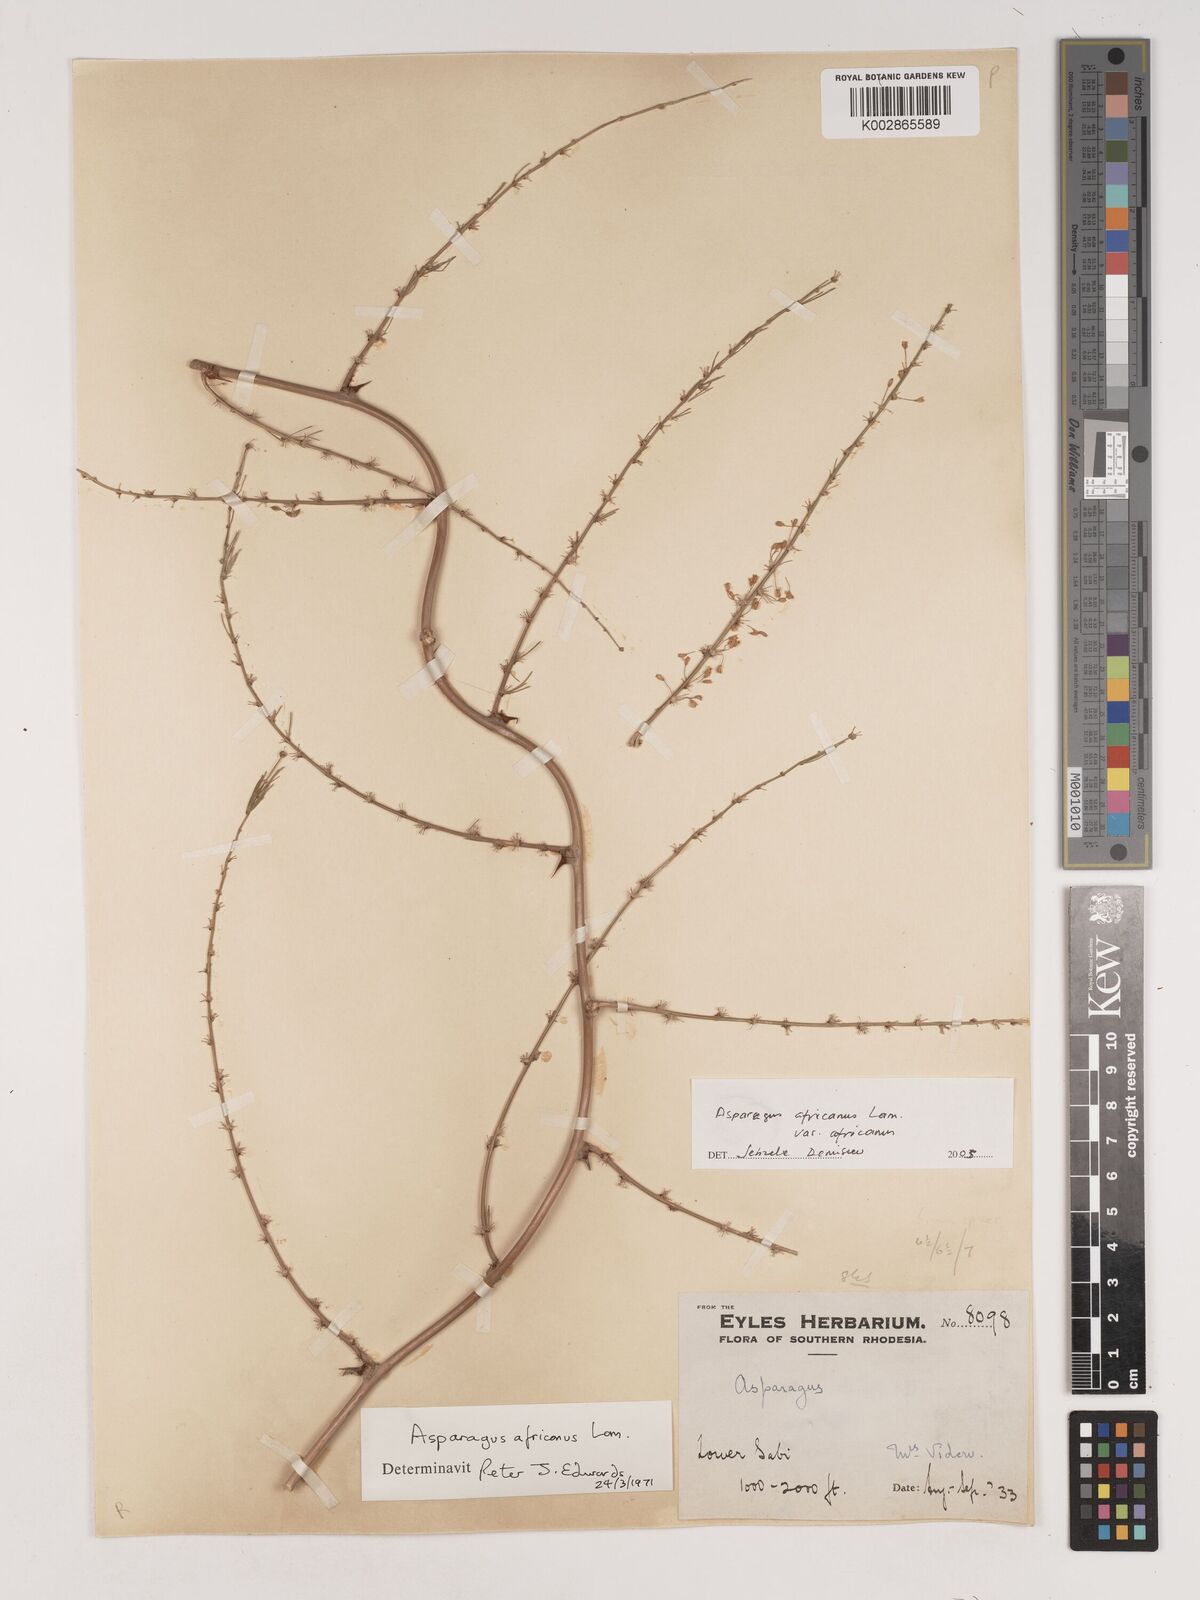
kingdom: Plantae
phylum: Tracheophyta
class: Liliopsida
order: Asparagales
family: Asparagaceae
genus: Asparagus
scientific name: Asparagus africanus
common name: Asparagus-fern
